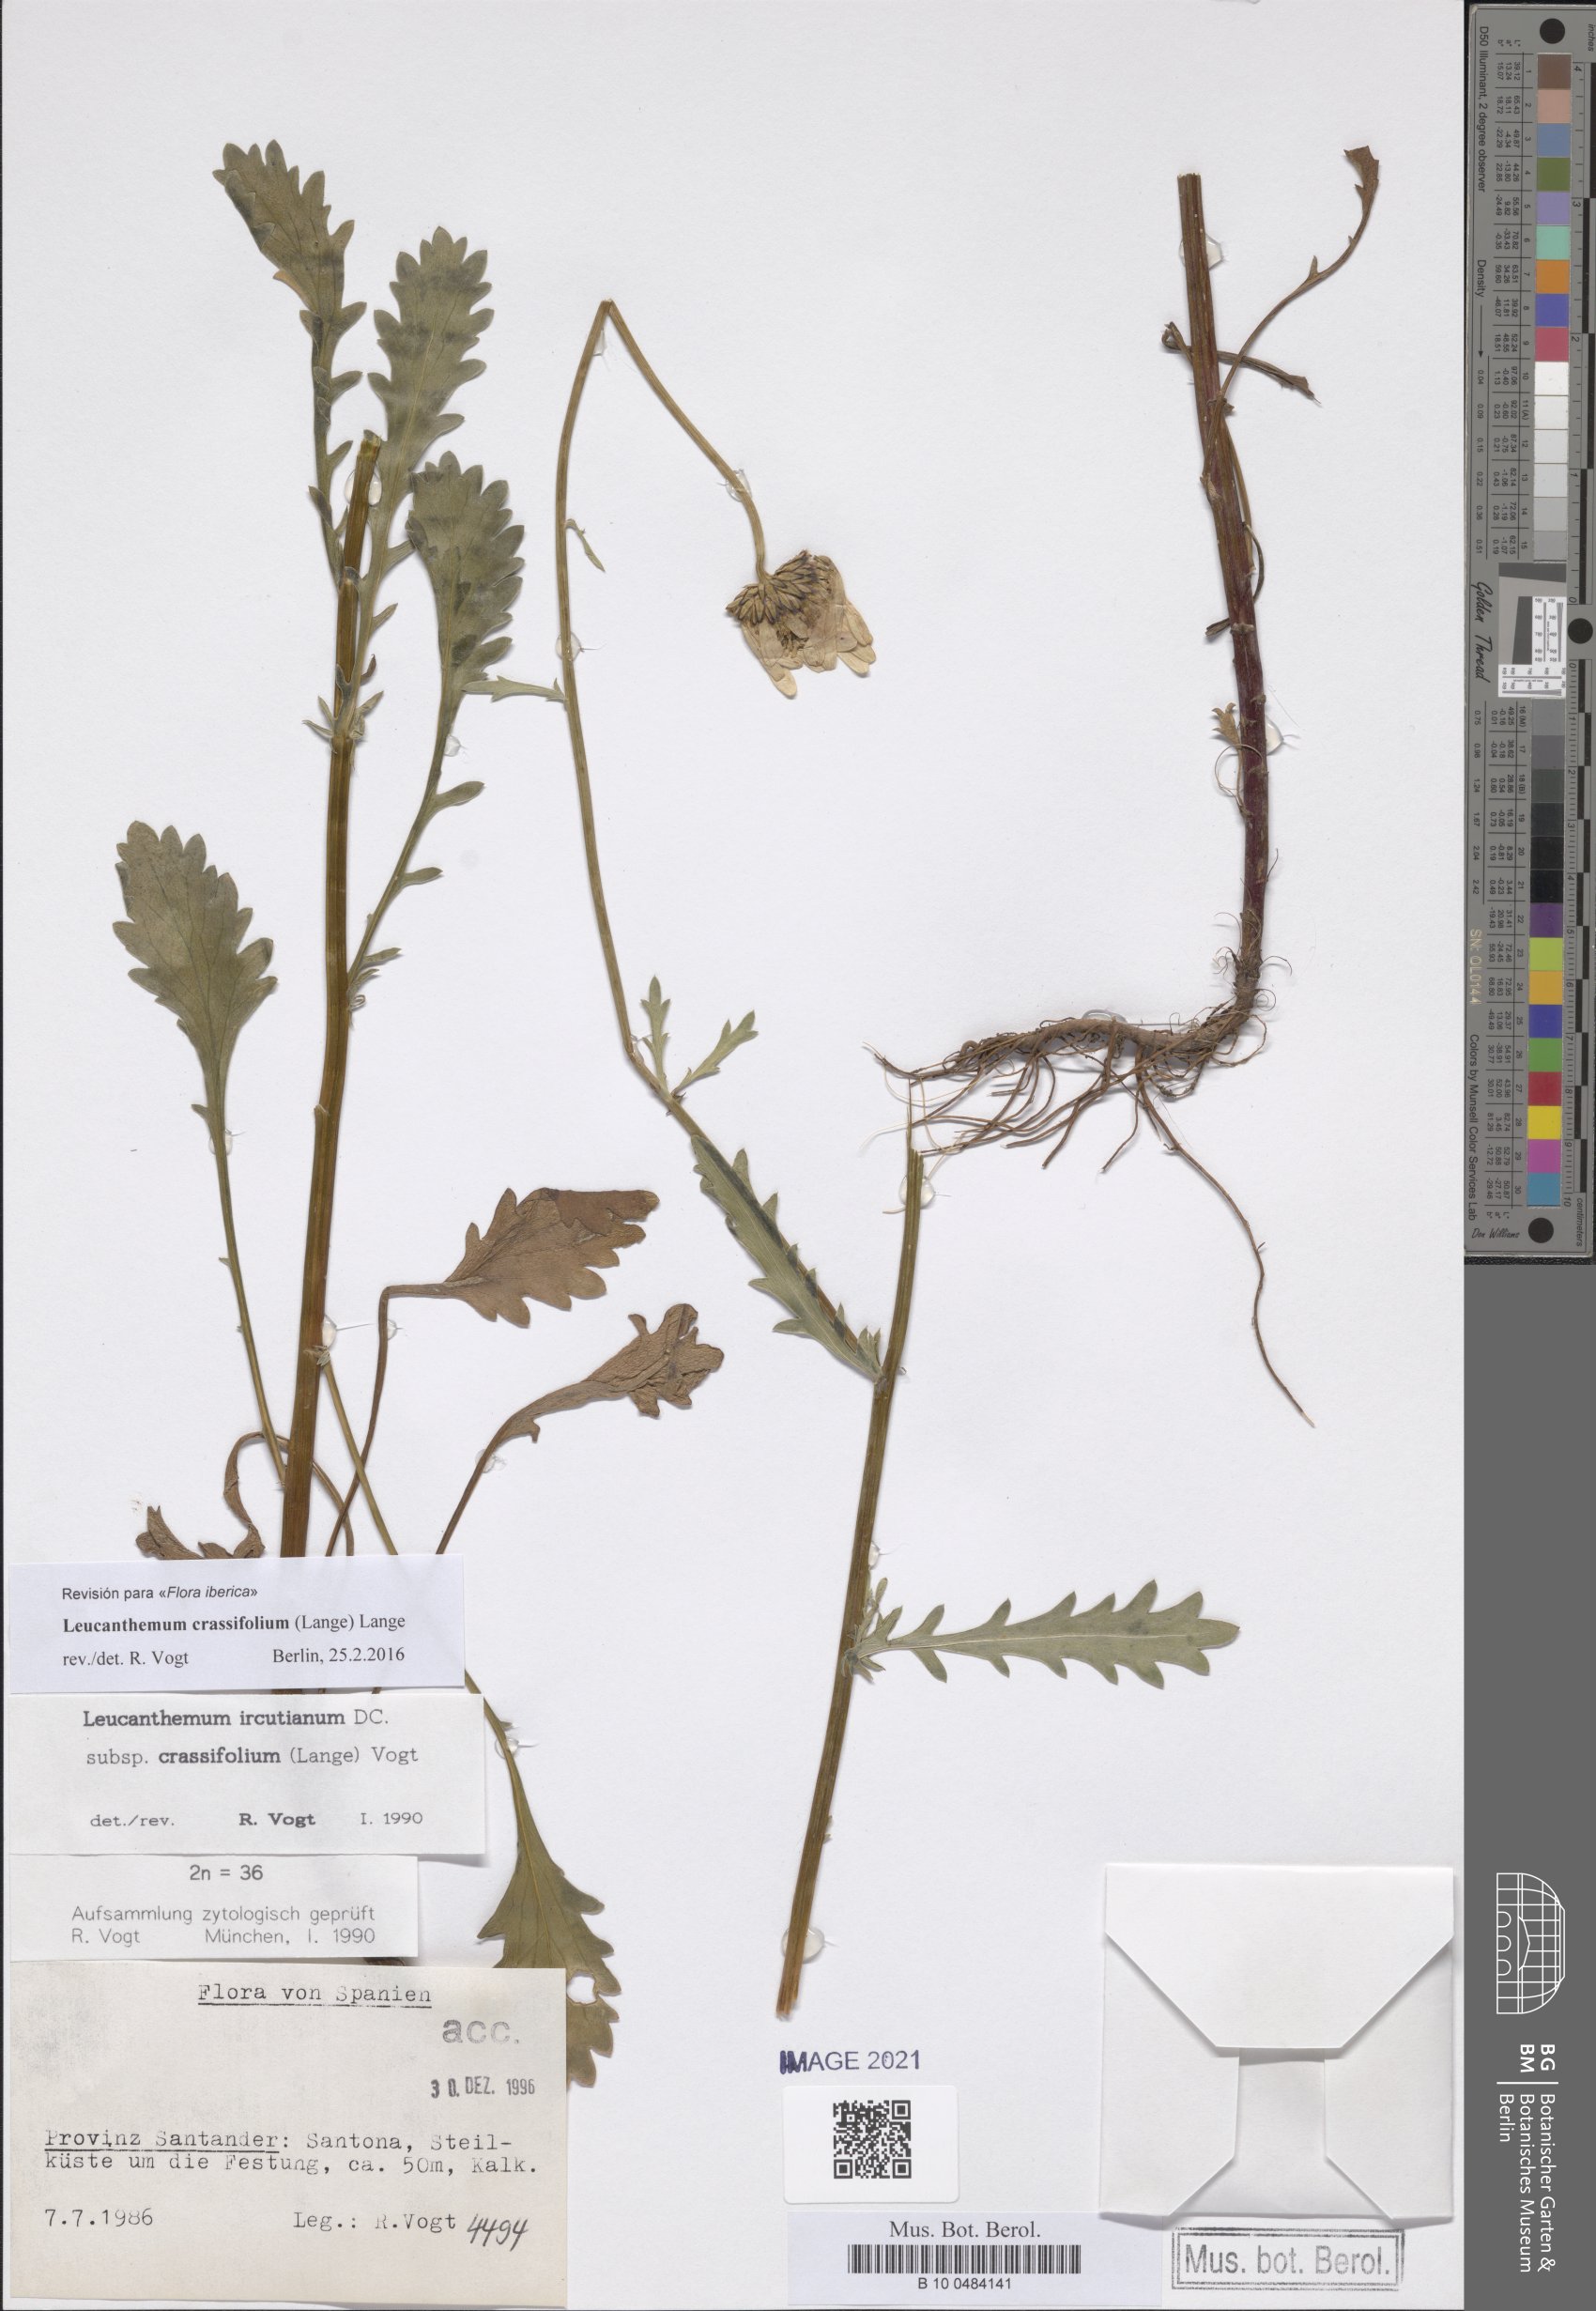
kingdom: Plantae
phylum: Tracheophyta
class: Magnoliopsida
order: Asterales
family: Asteraceae
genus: Leucanthemum
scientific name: Leucanthemum crassifolium
